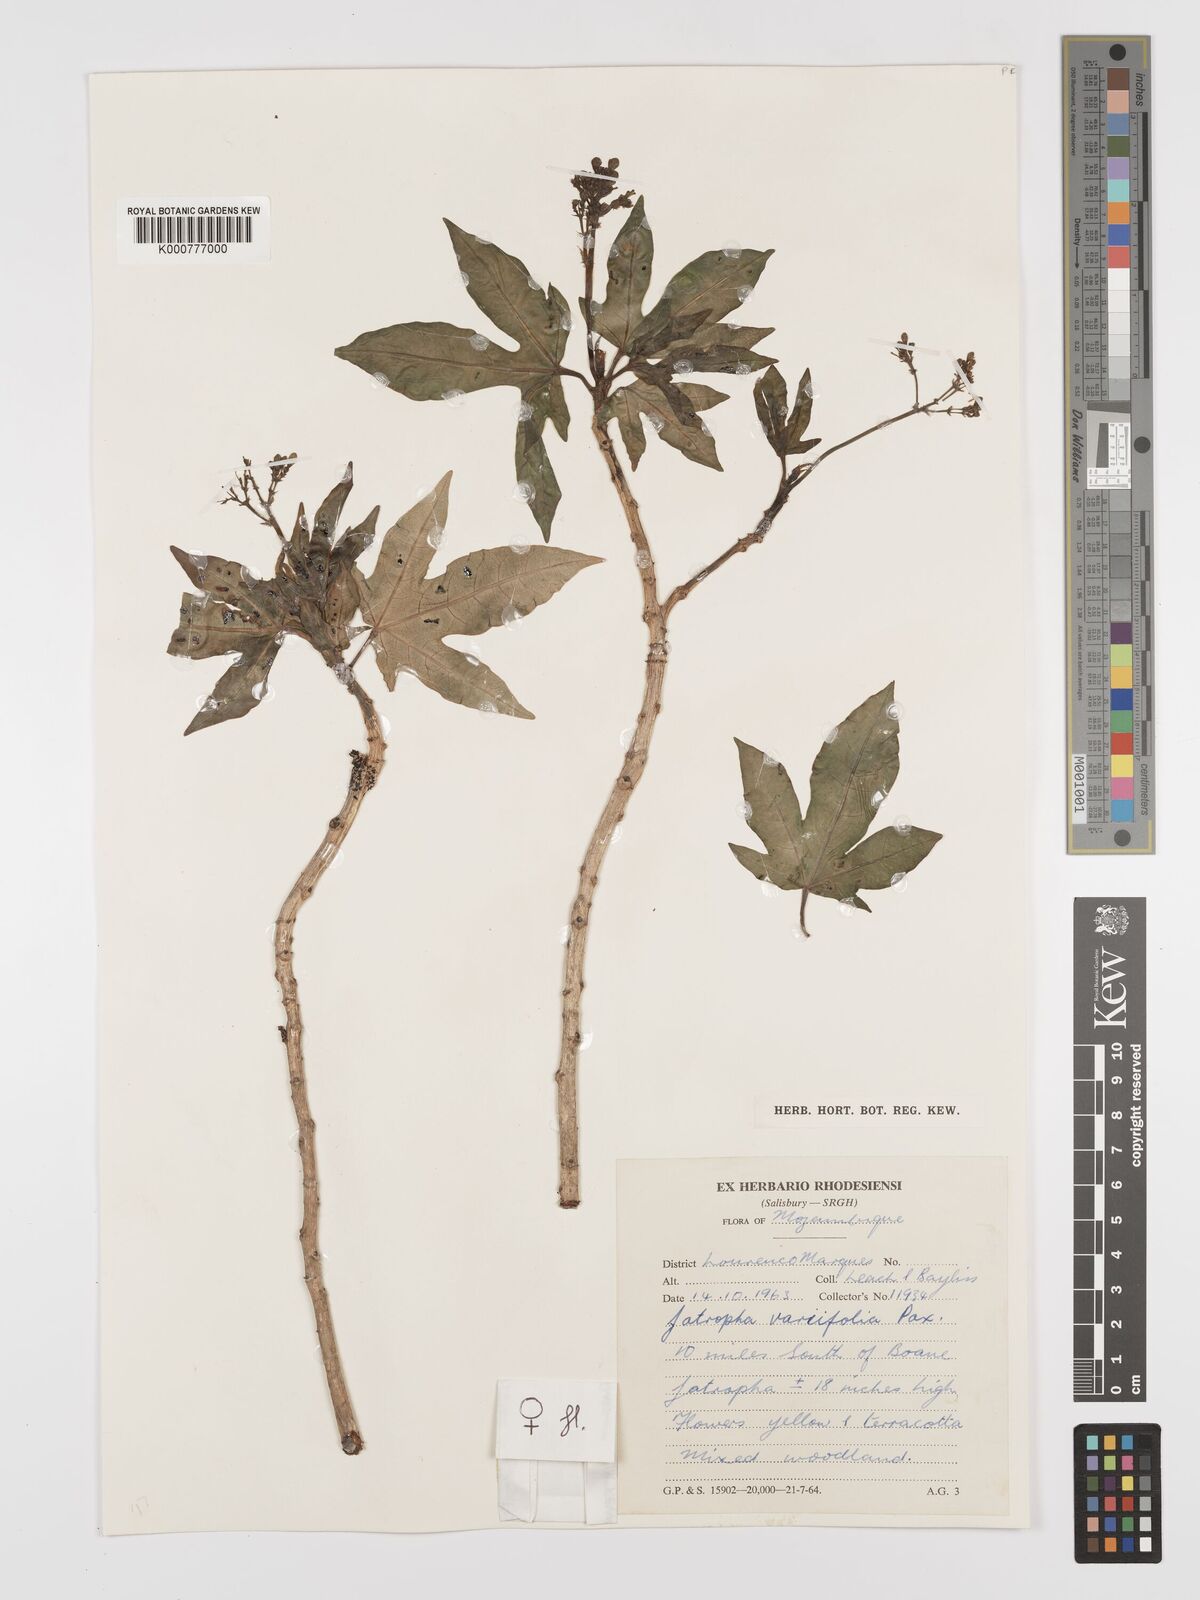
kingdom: Plantae
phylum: Tracheophyta
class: Magnoliopsida
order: Malpighiales
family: Euphorbiaceae
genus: Jatropha
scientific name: Jatropha variifolia
